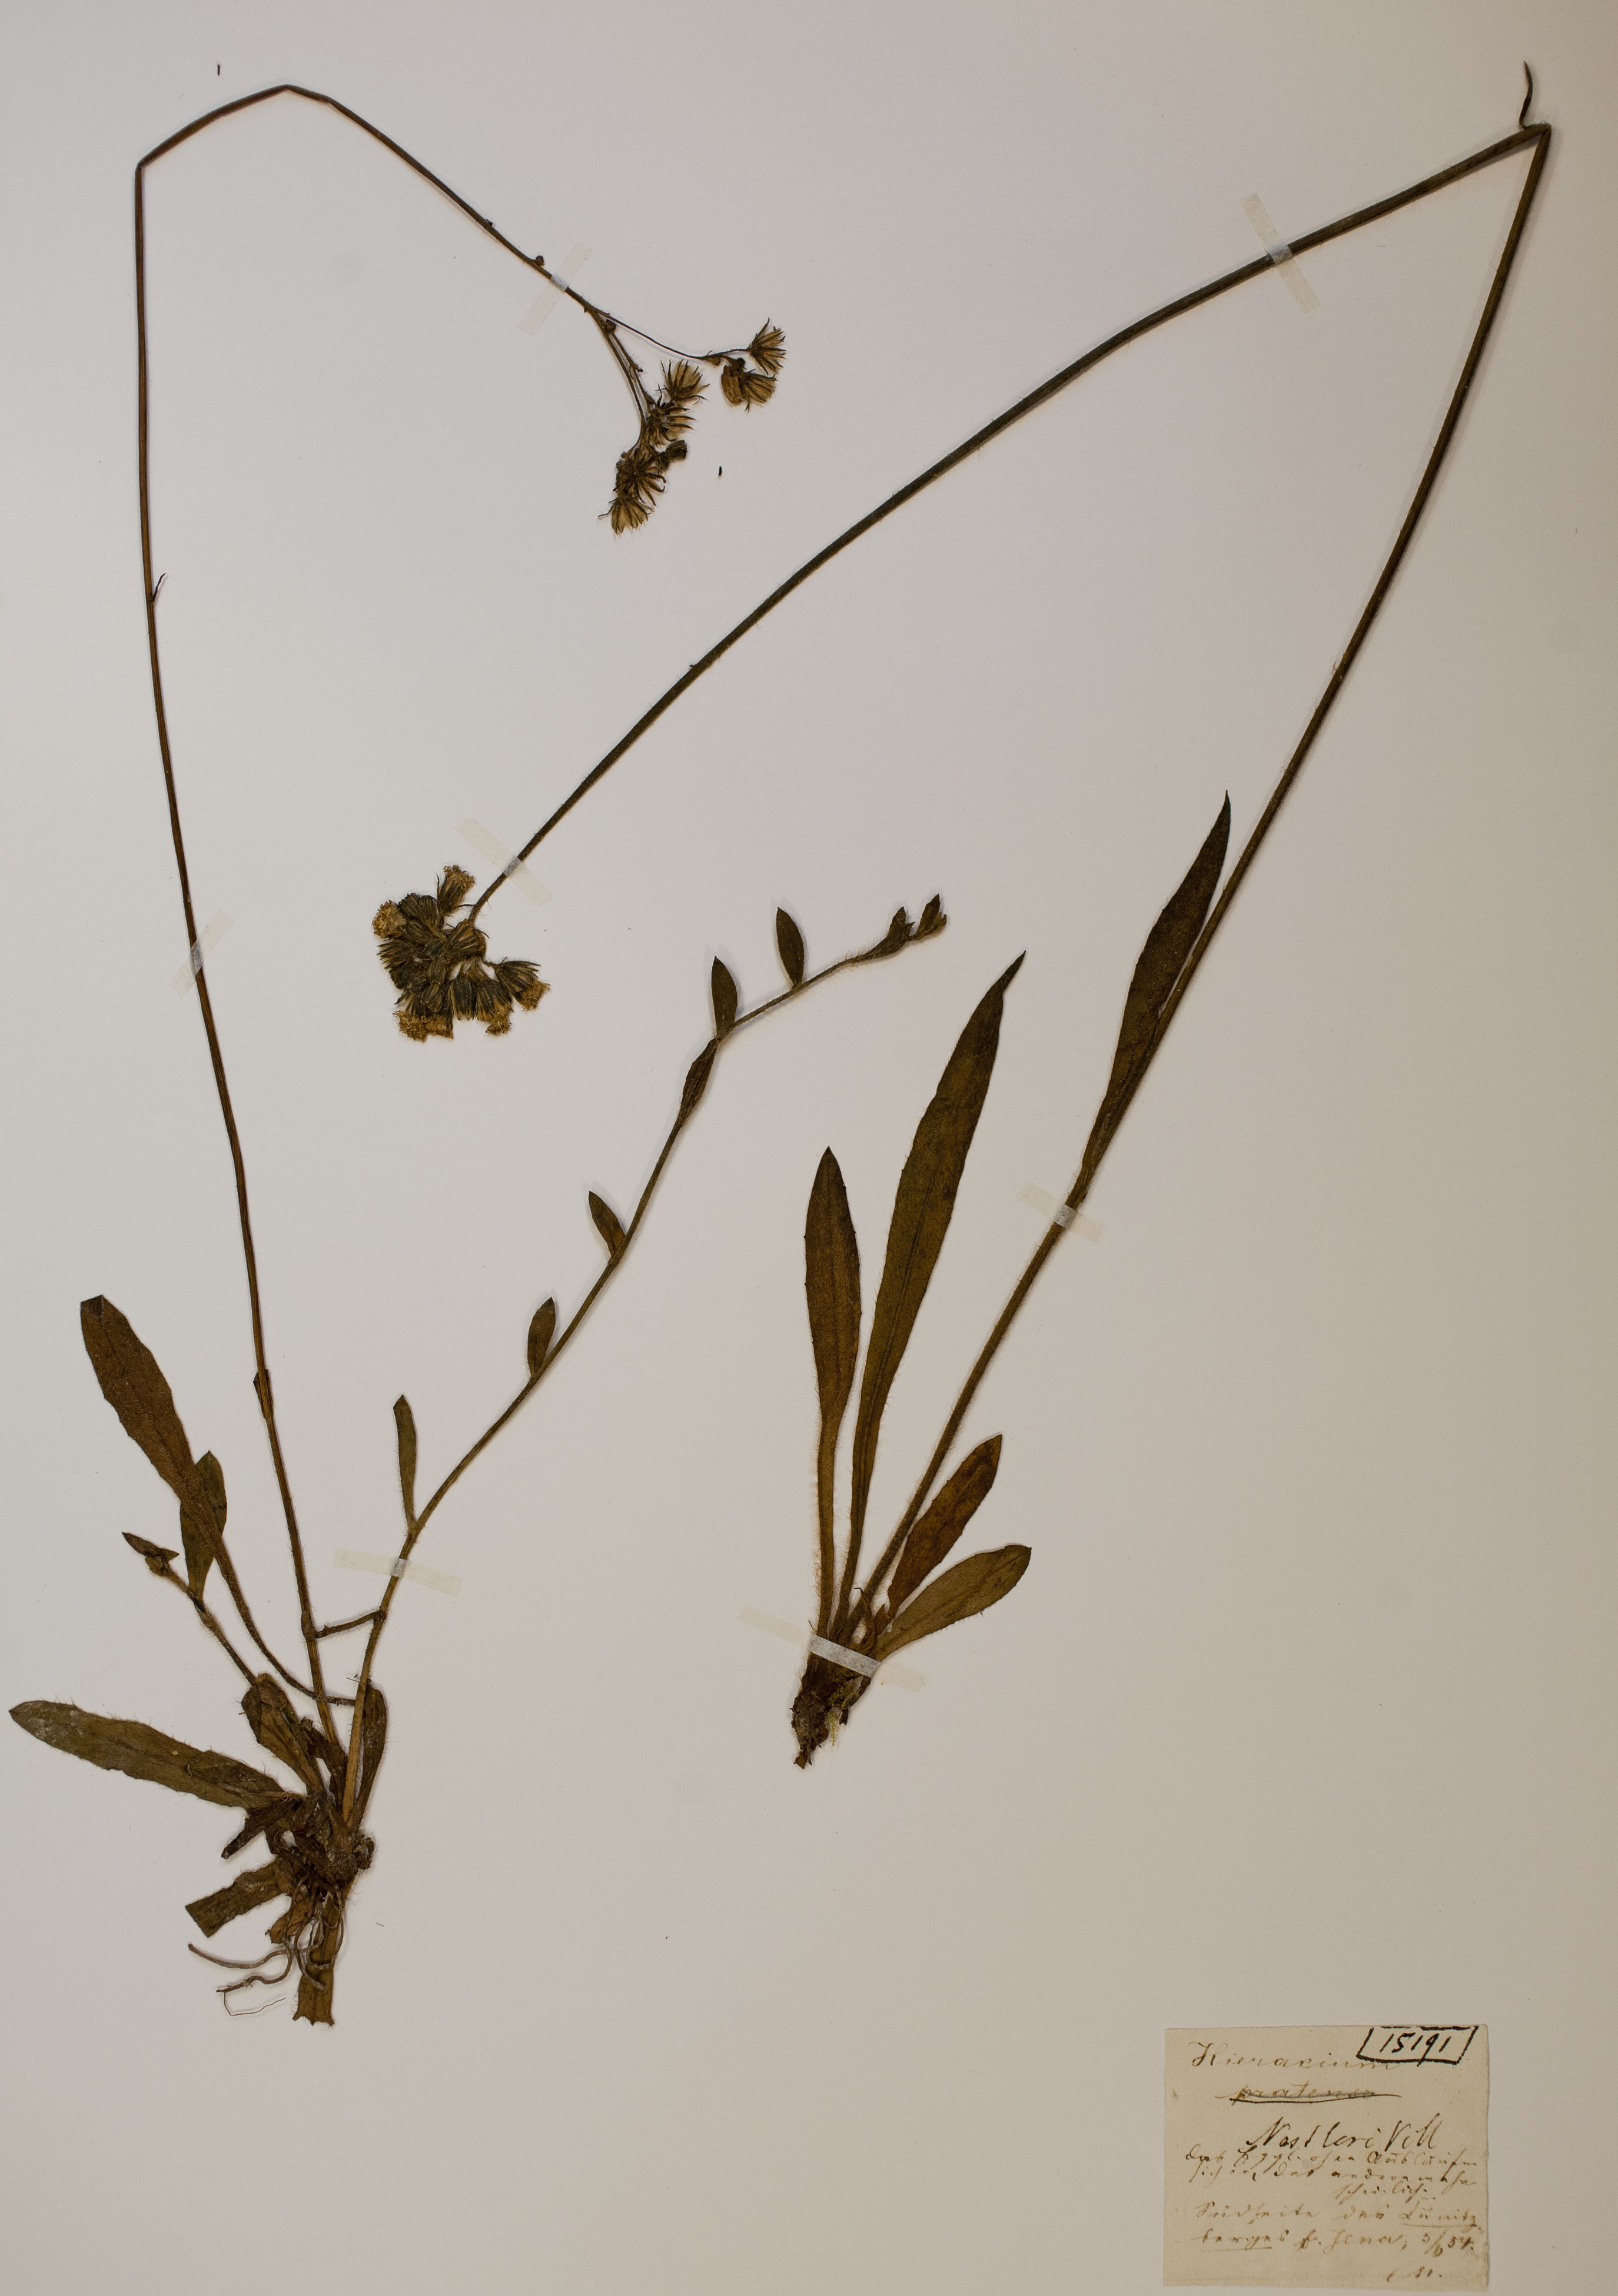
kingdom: Plantae
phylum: Tracheophyta
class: Magnoliopsida
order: Asterales
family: Asteraceae
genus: Pilosella
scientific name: Pilosella auriculoides
